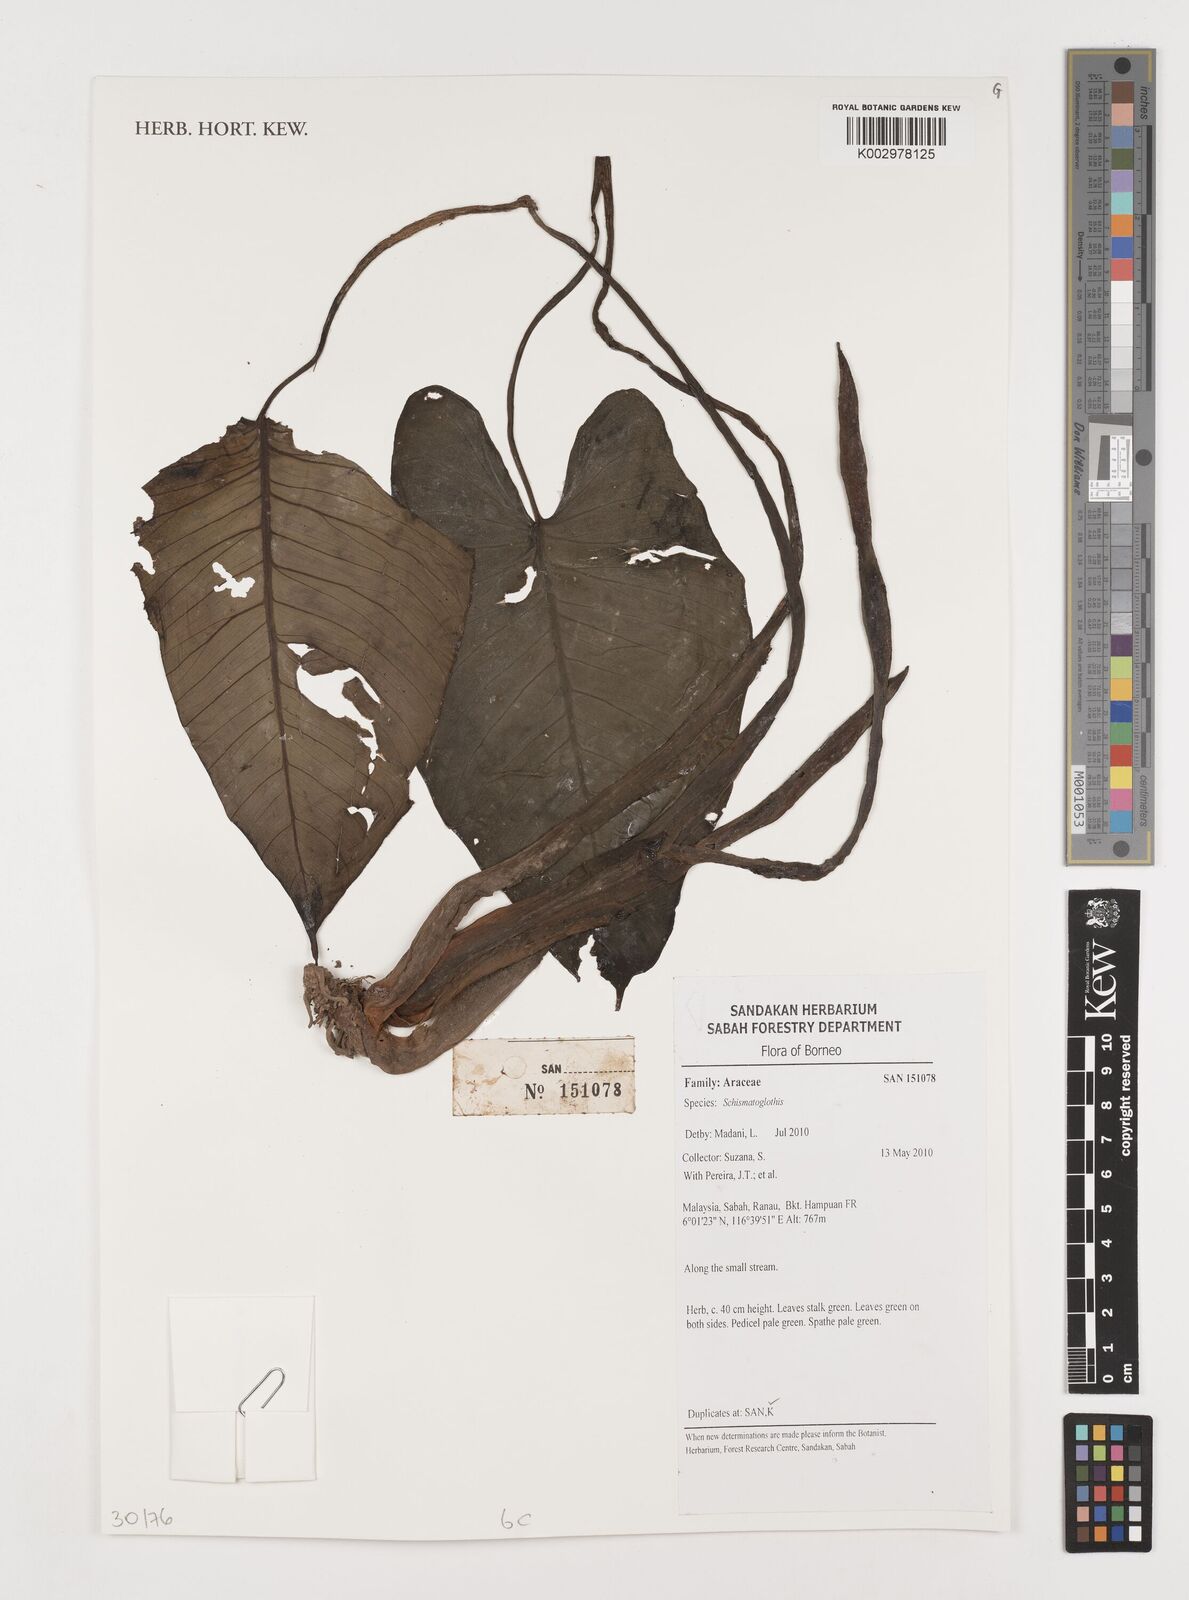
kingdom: Plantae
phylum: Tracheophyta
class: Liliopsida
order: Alismatales
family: Araceae
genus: Schismatoglottis
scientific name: Schismatoglottis
